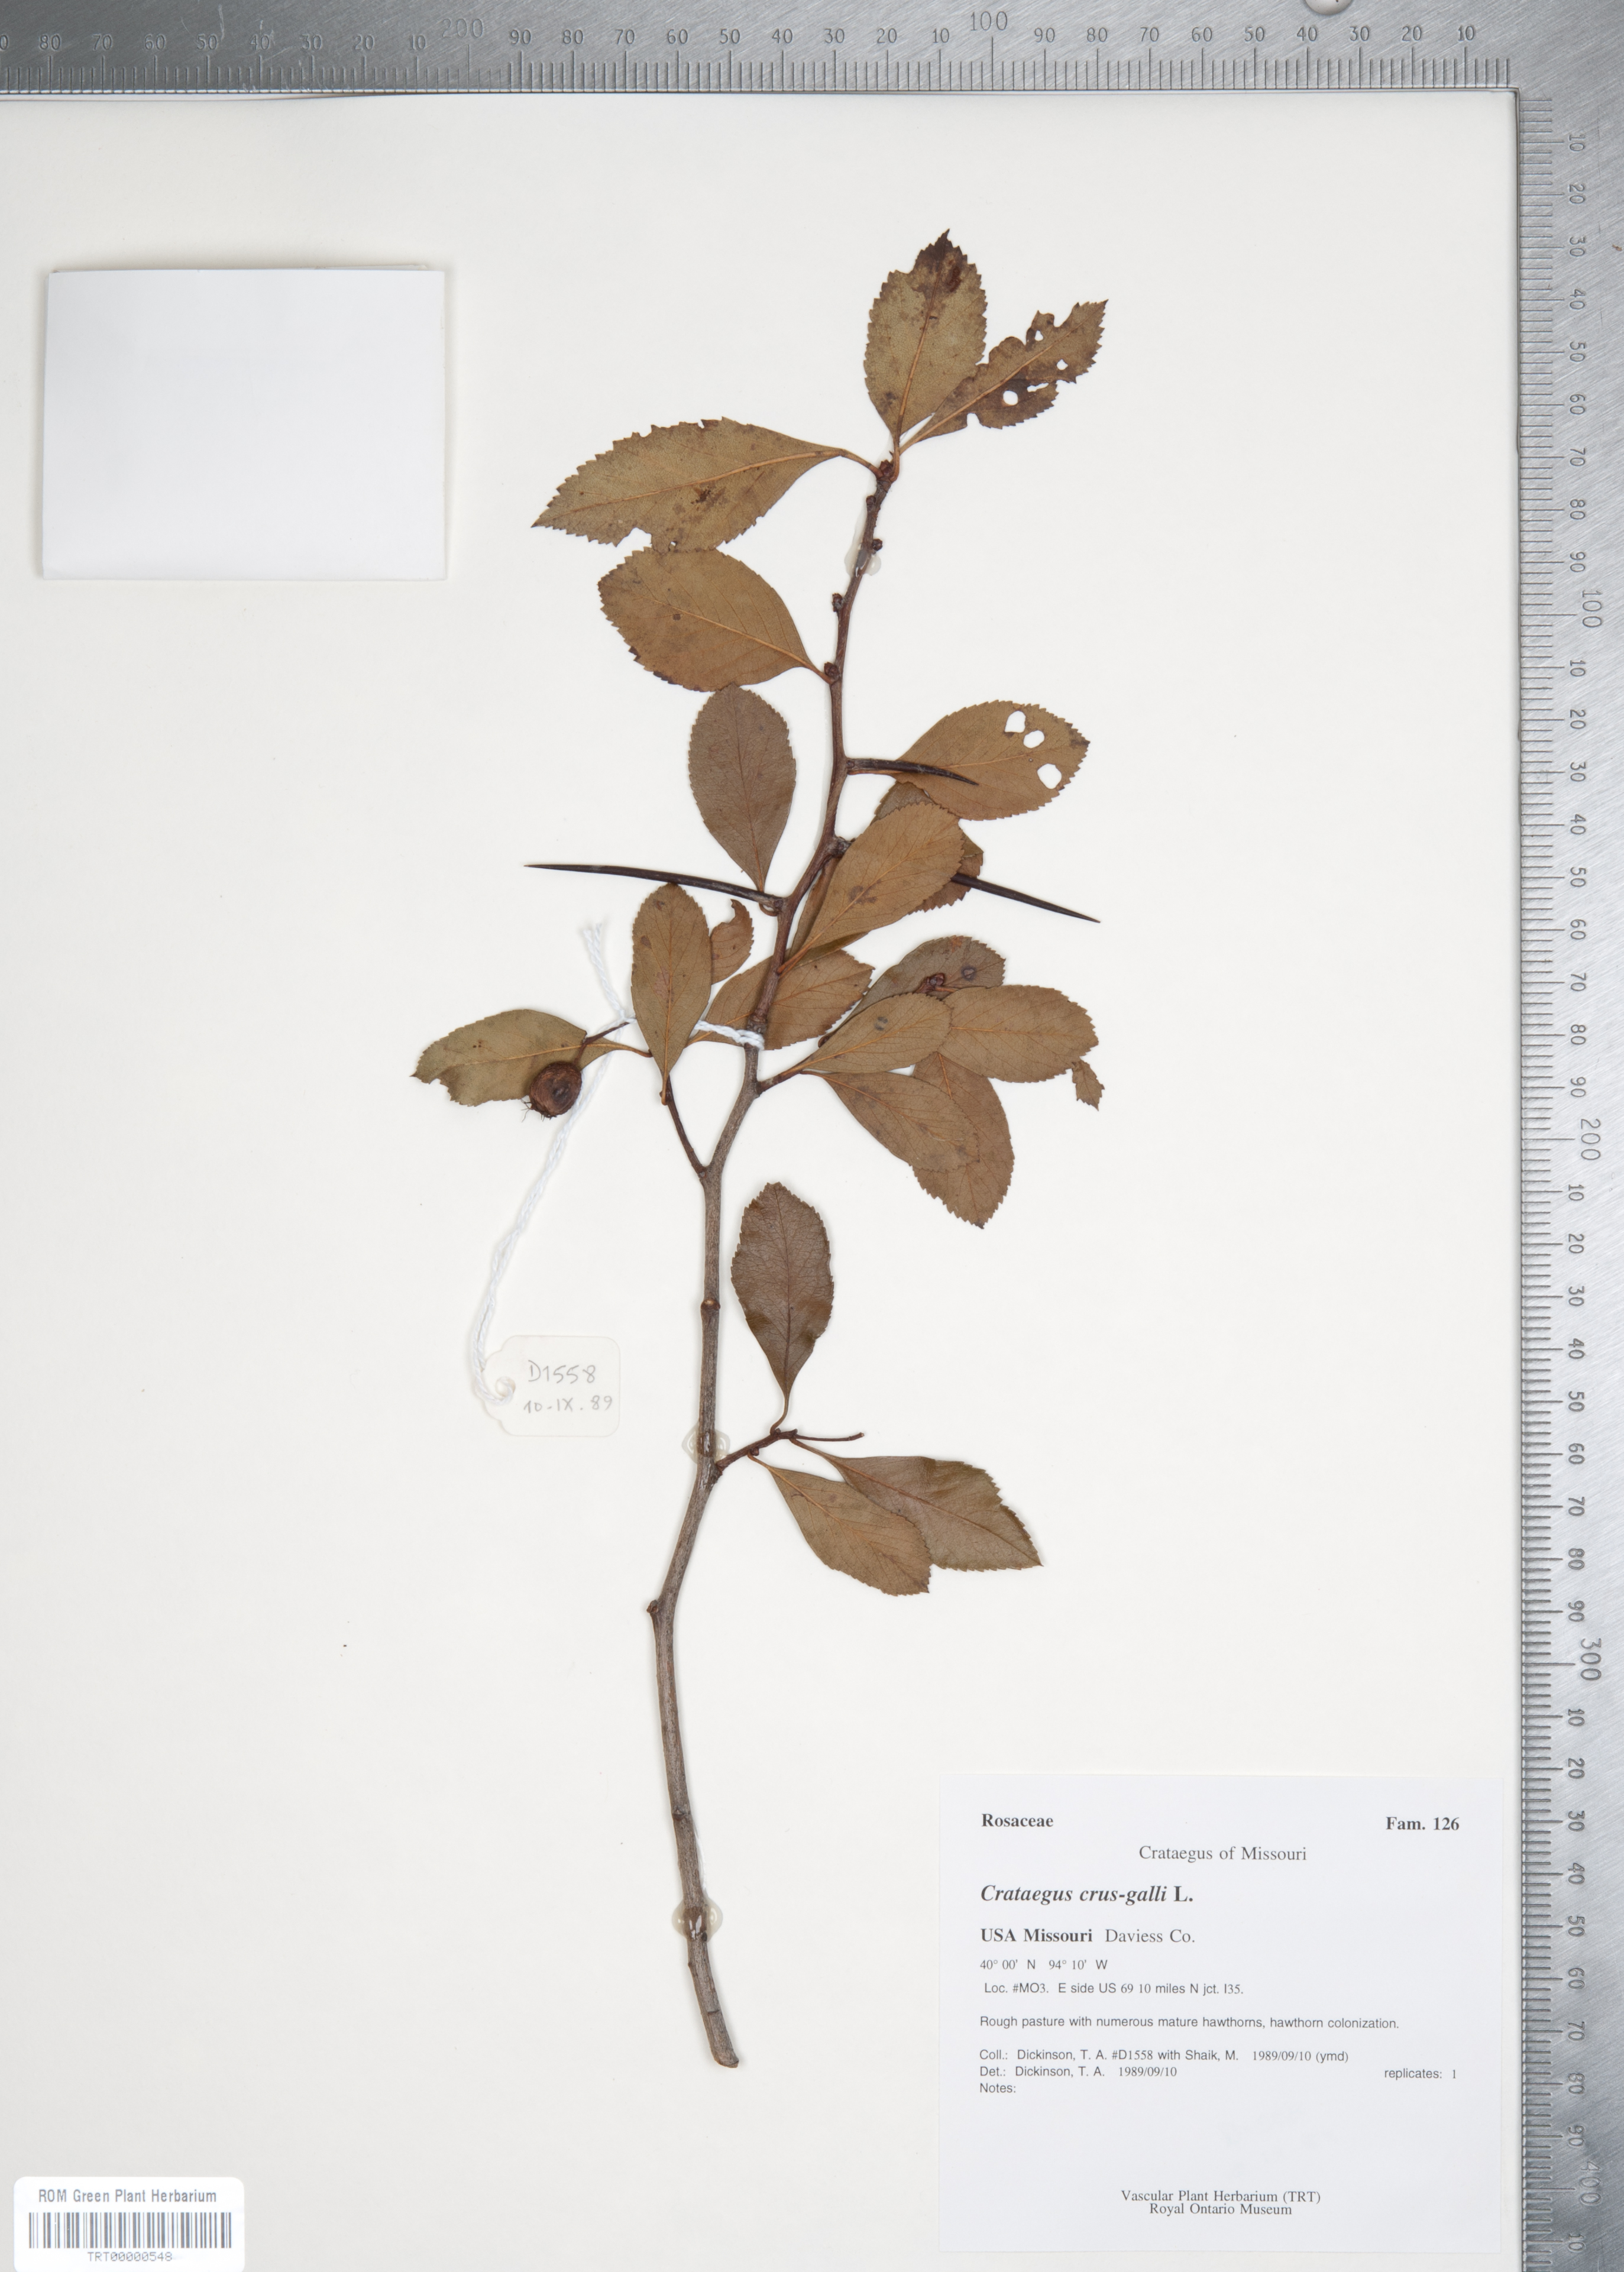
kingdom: Plantae
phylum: Tracheophyta
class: Magnoliopsida
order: Rosales
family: Rosaceae
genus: Crataegus
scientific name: Crataegus crus-galli
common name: Cockspurthorn
